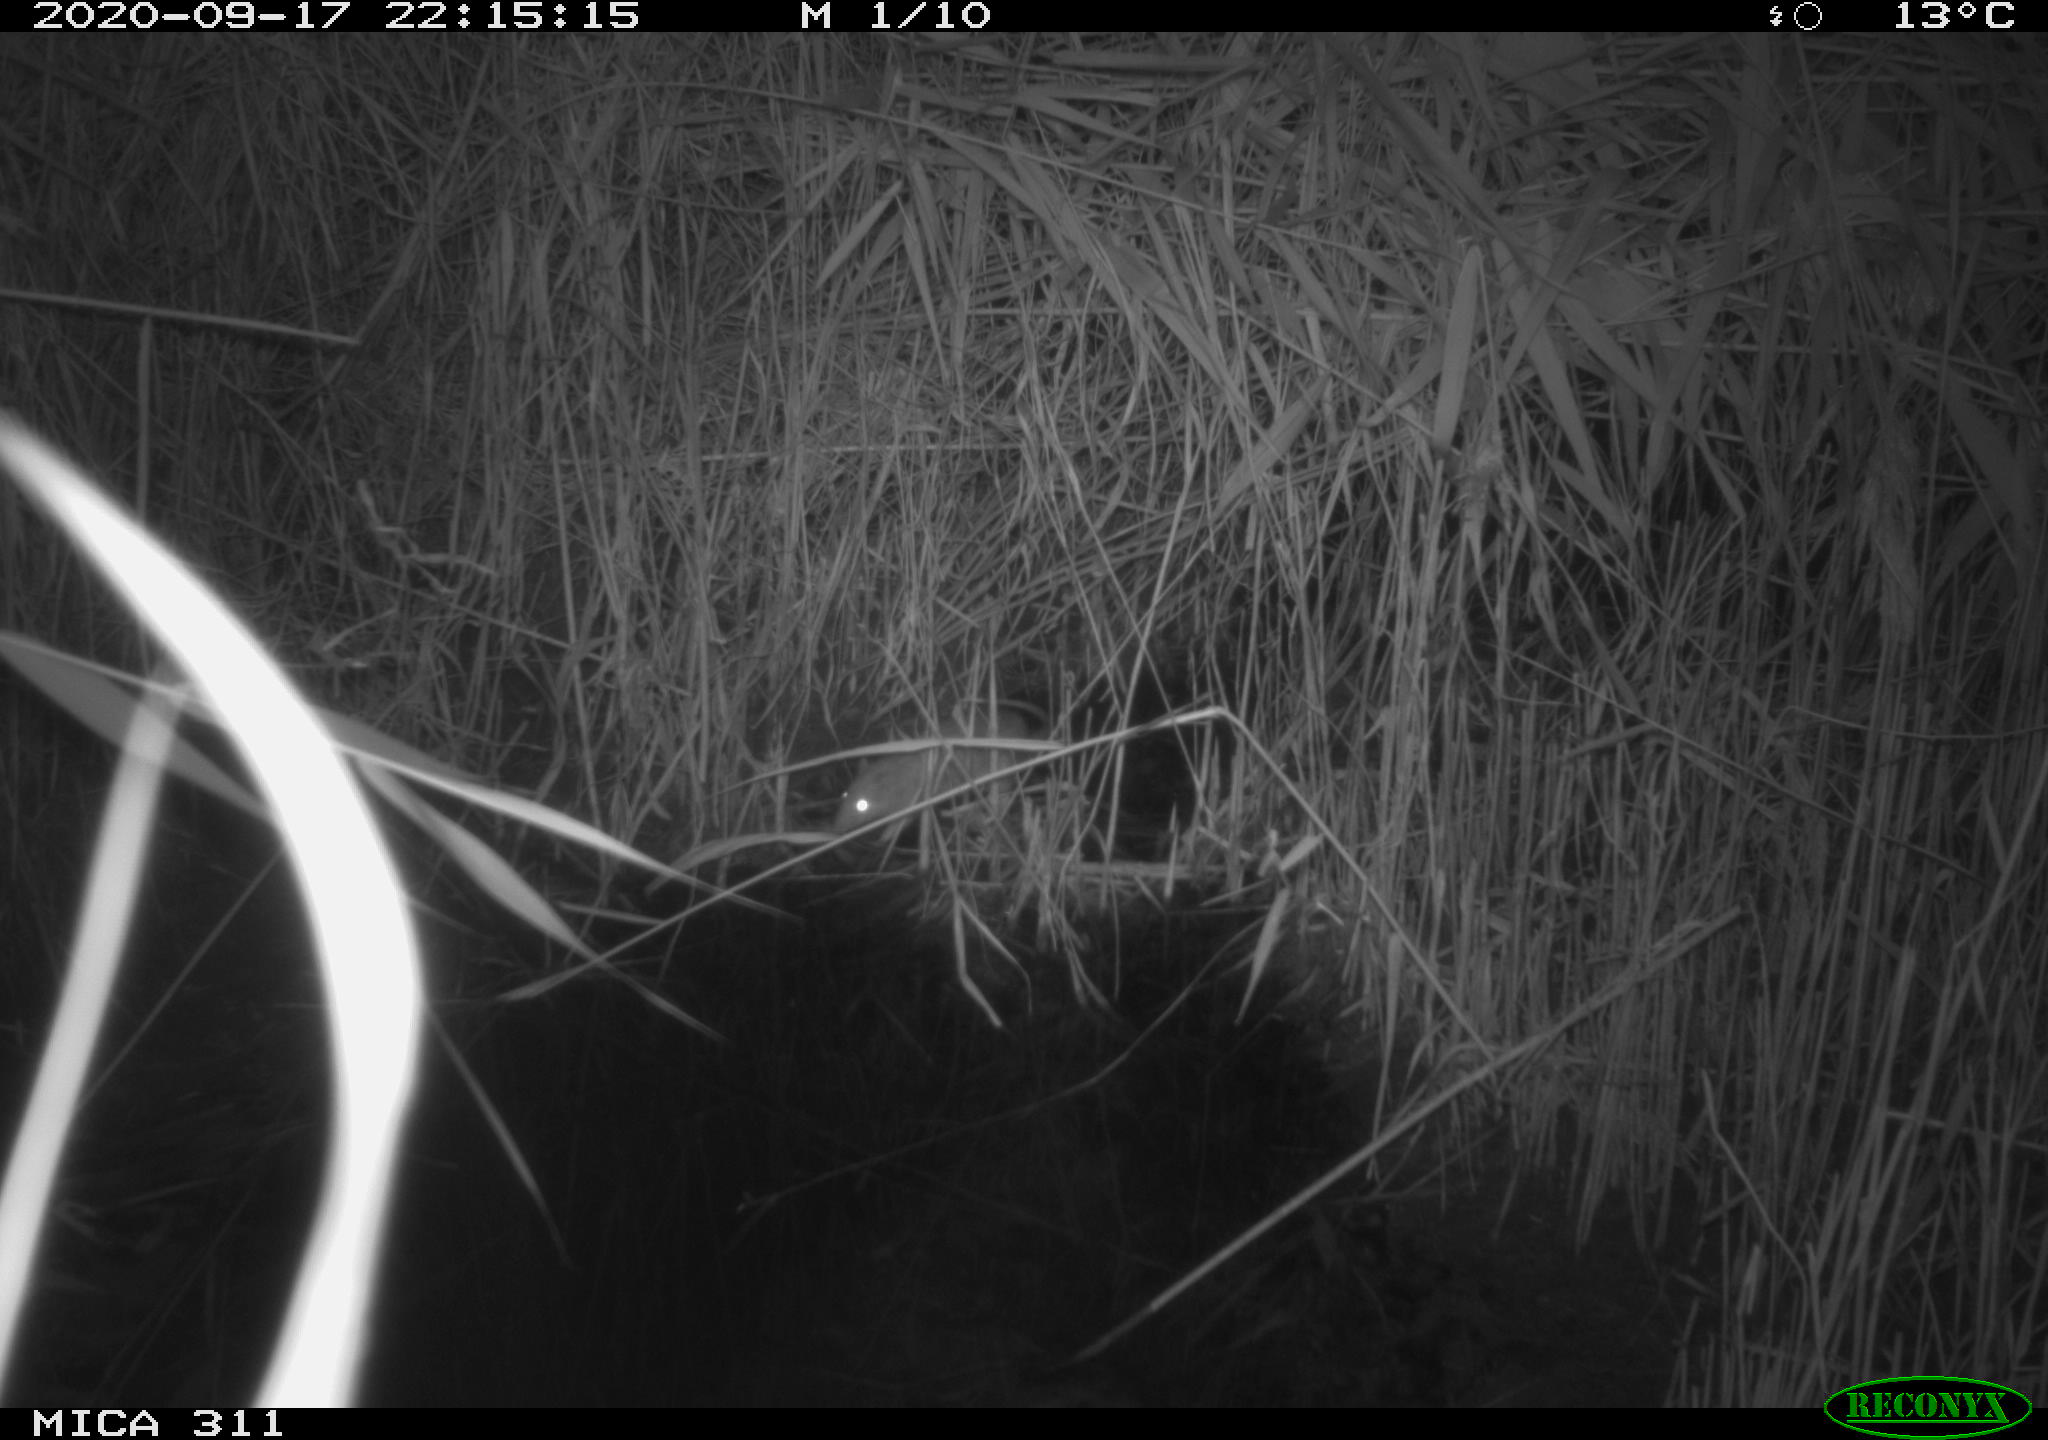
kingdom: Animalia
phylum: Chordata
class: Mammalia
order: Rodentia
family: Muridae
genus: Rattus
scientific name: Rattus norvegicus
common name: Brown rat
